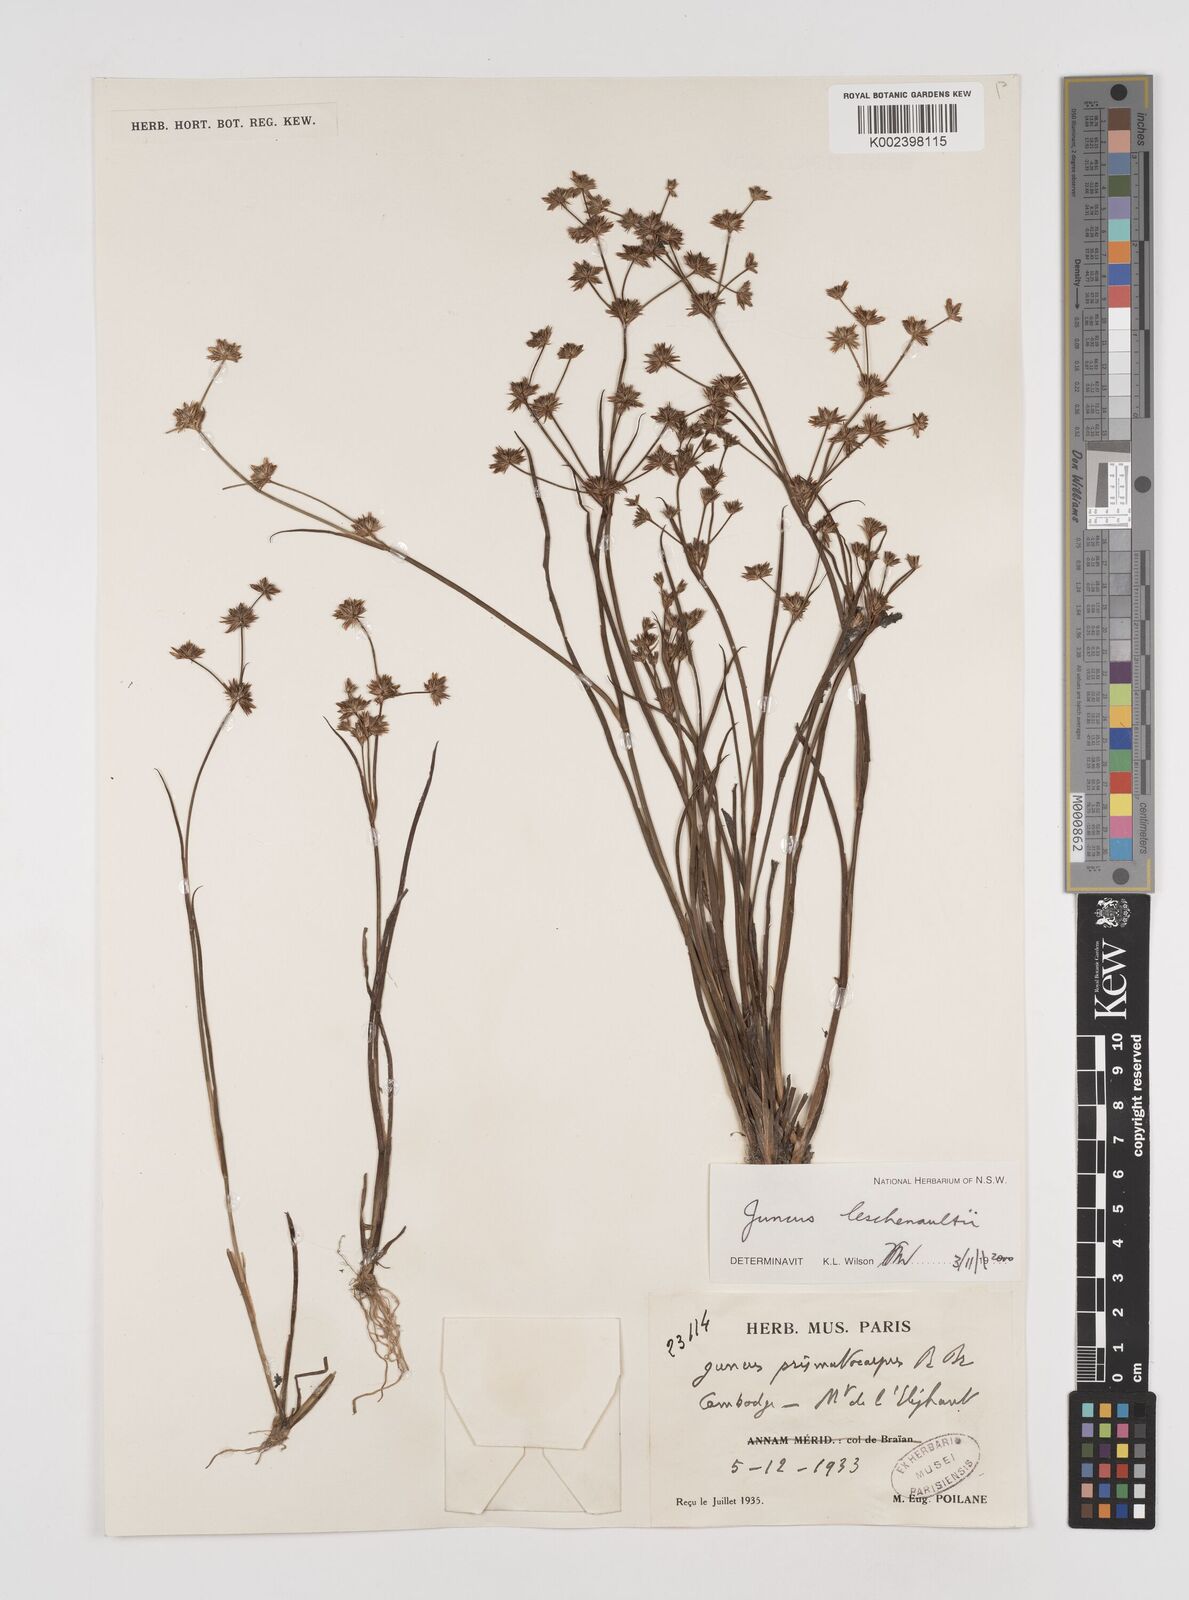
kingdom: Plantae
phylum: Tracheophyta
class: Liliopsida
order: Poales
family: Juncaceae
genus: Juncus
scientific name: Juncus prismatocarpus
